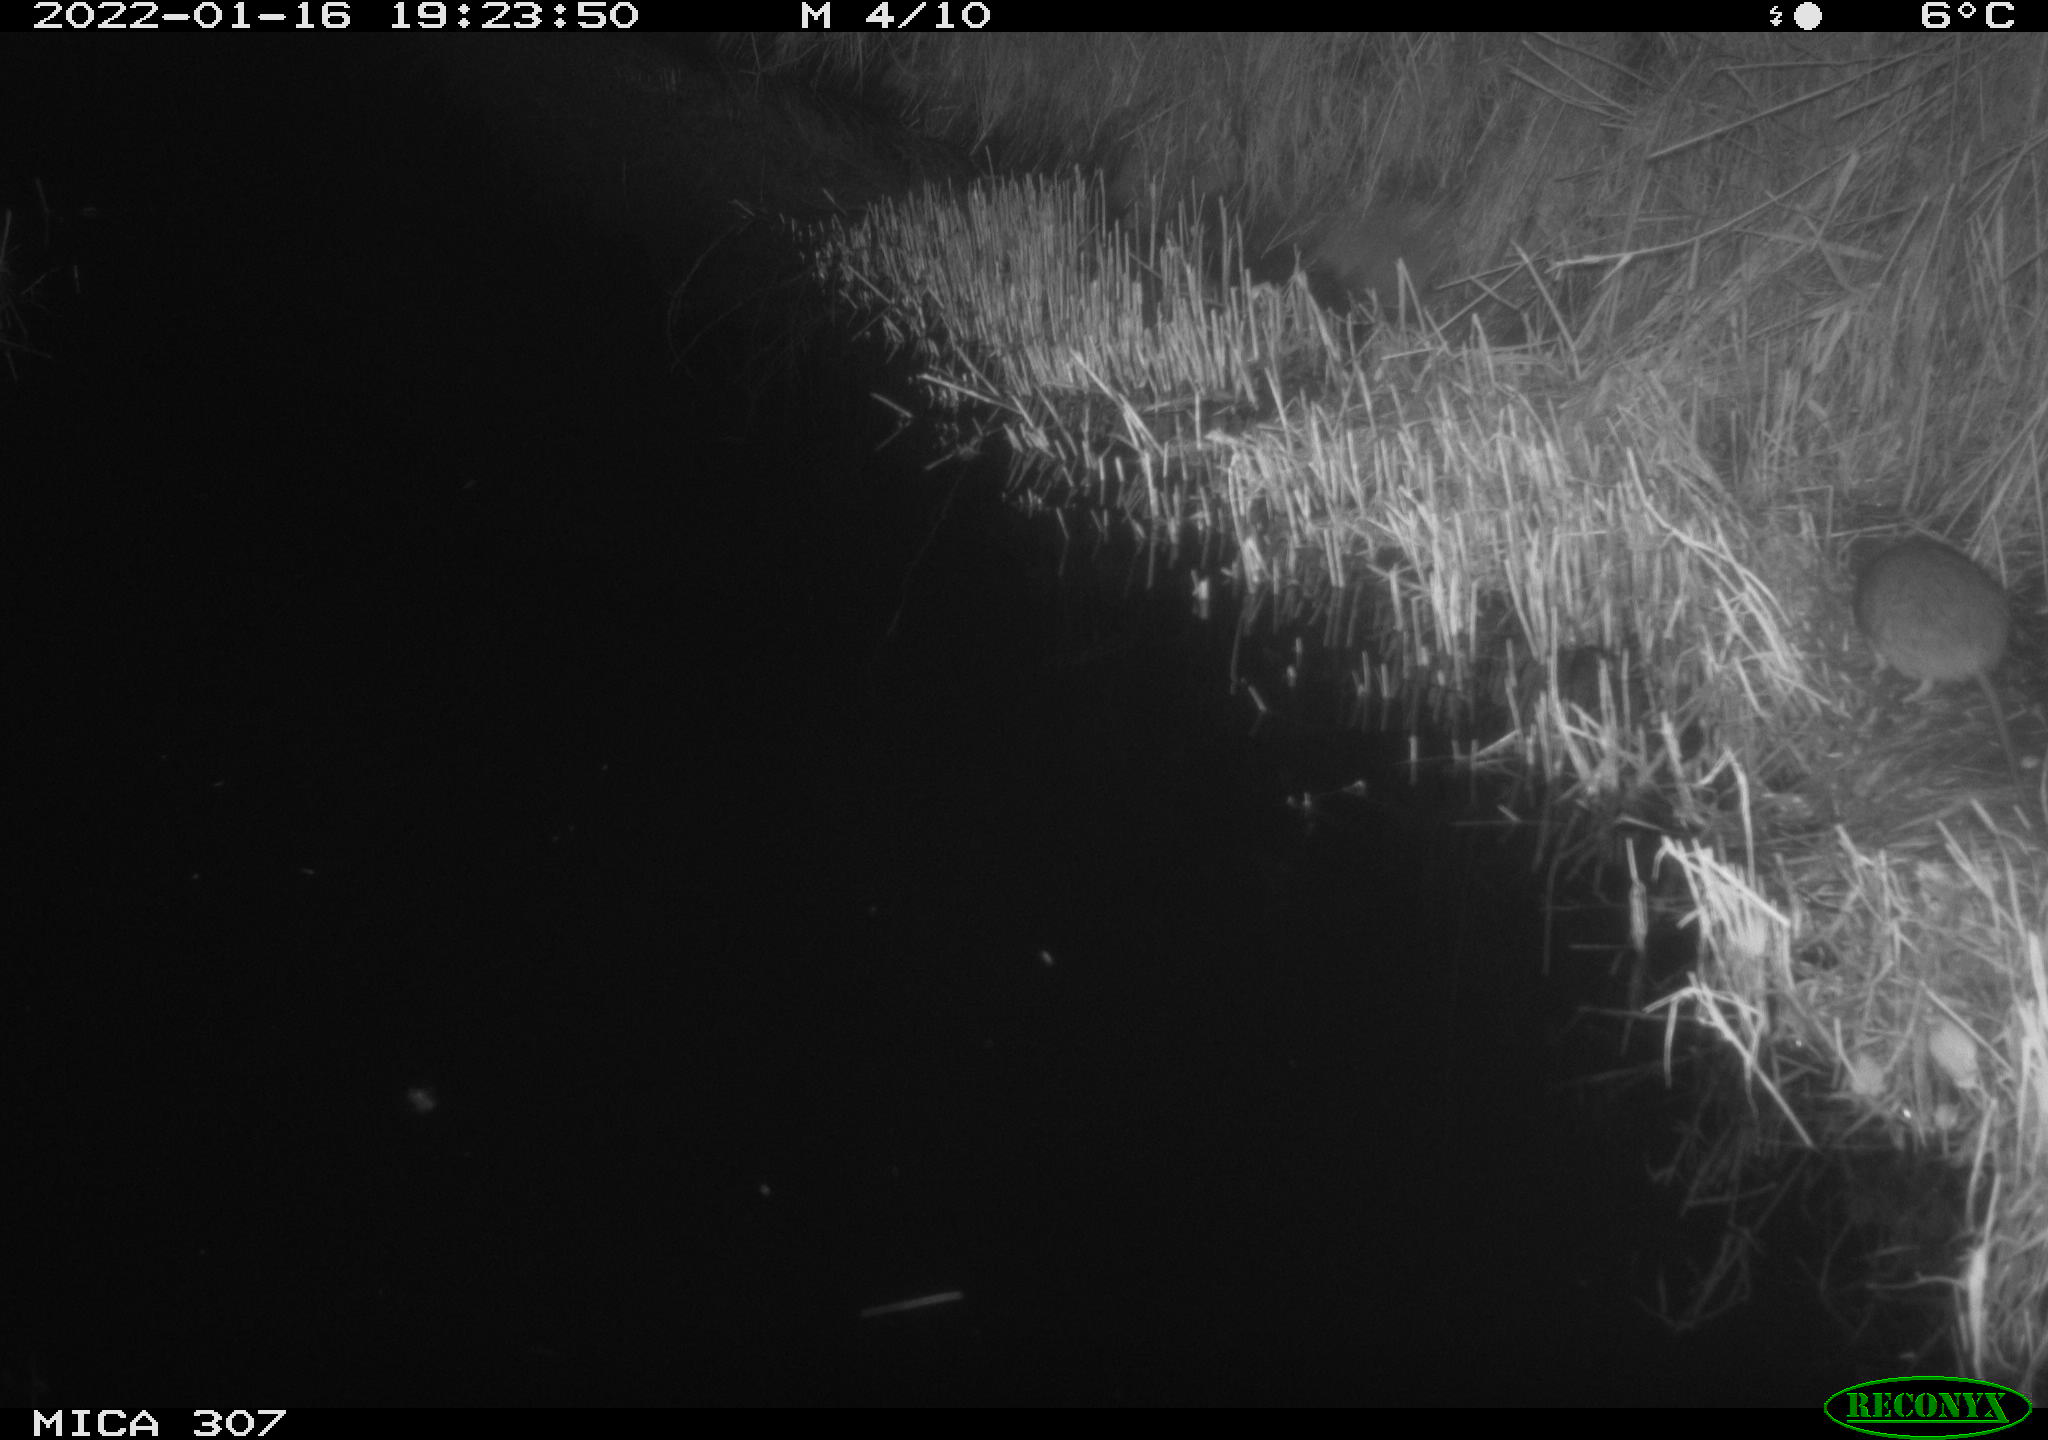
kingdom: Animalia
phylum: Chordata
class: Mammalia
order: Rodentia
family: Muridae
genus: Rattus
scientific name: Rattus norvegicus
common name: Brown rat
